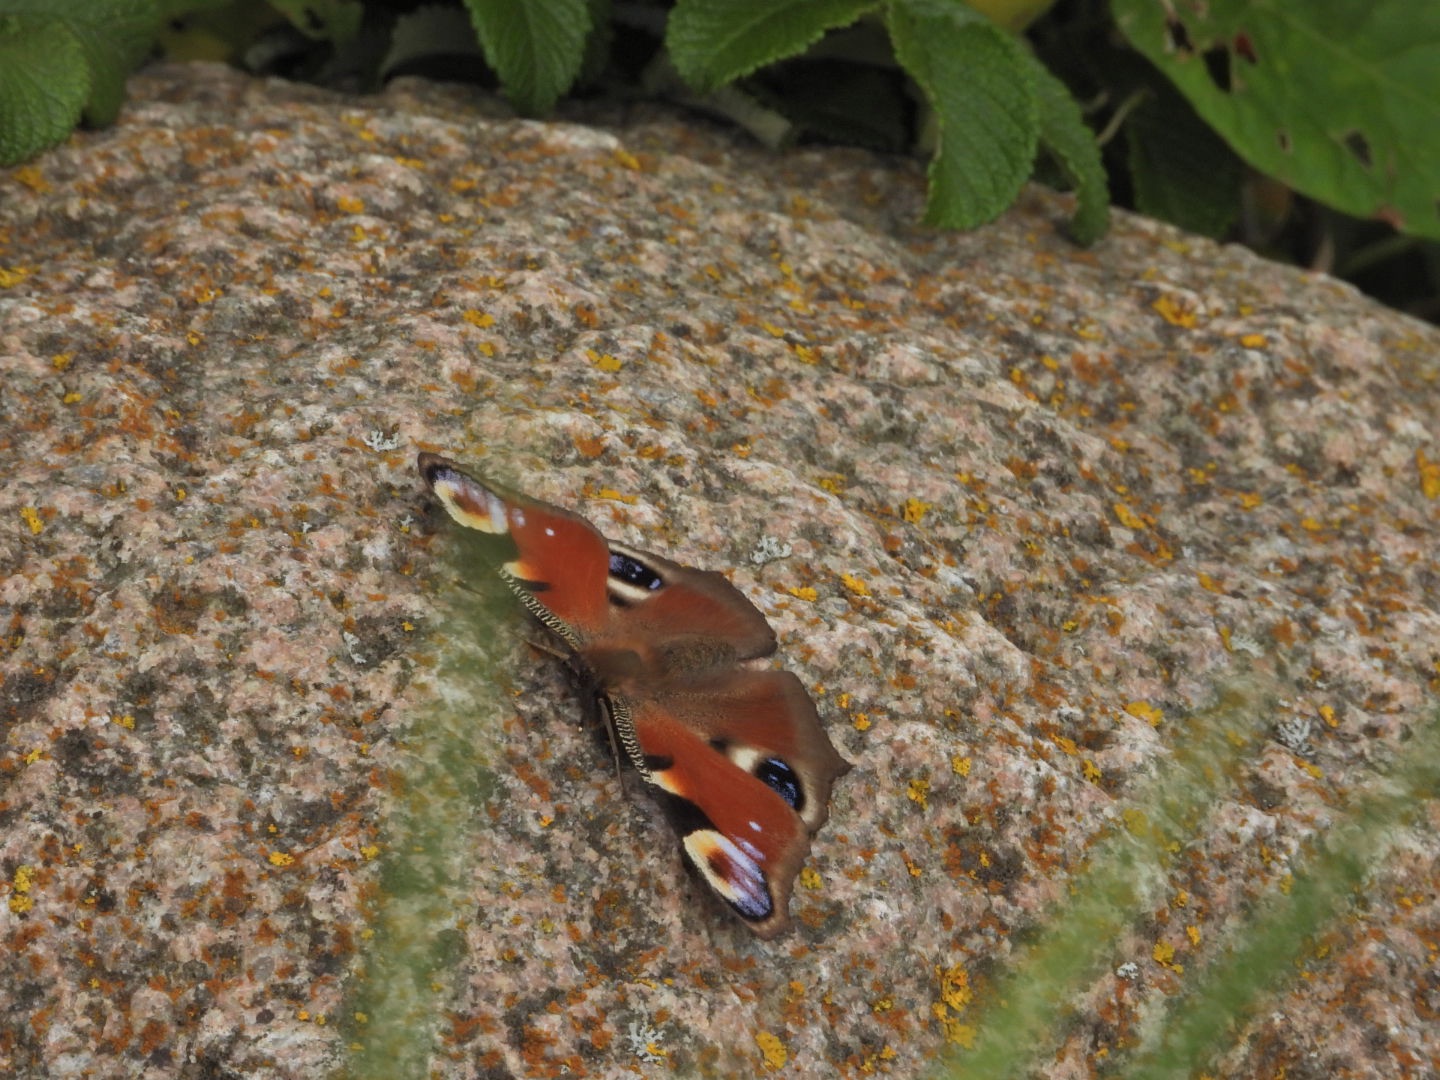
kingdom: Animalia
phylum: Arthropoda
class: Insecta
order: Lepidoptera
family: Nymphalidae
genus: Aglais
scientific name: Aglais io
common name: Dagpåfugleøje
